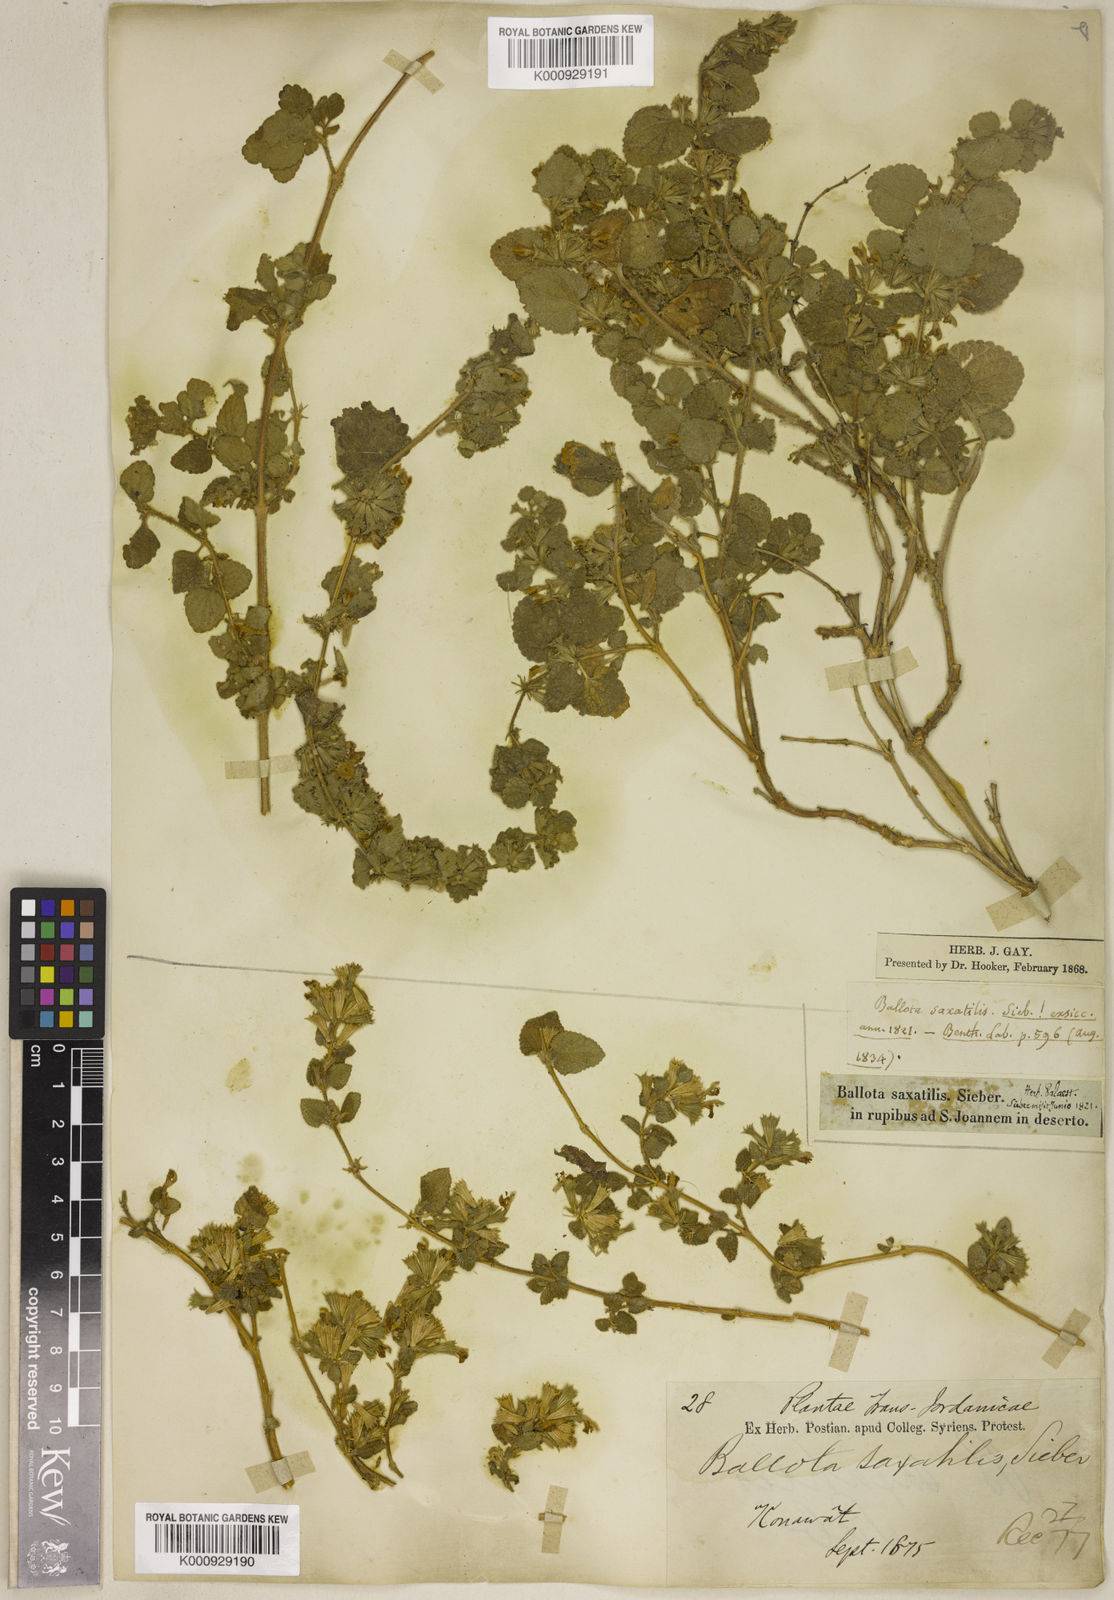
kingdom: Plantae
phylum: Tracheophyta
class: Magnoliopsida
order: Lamiales
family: Lamiaceae
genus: Ballota
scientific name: Ballota saxatilis
